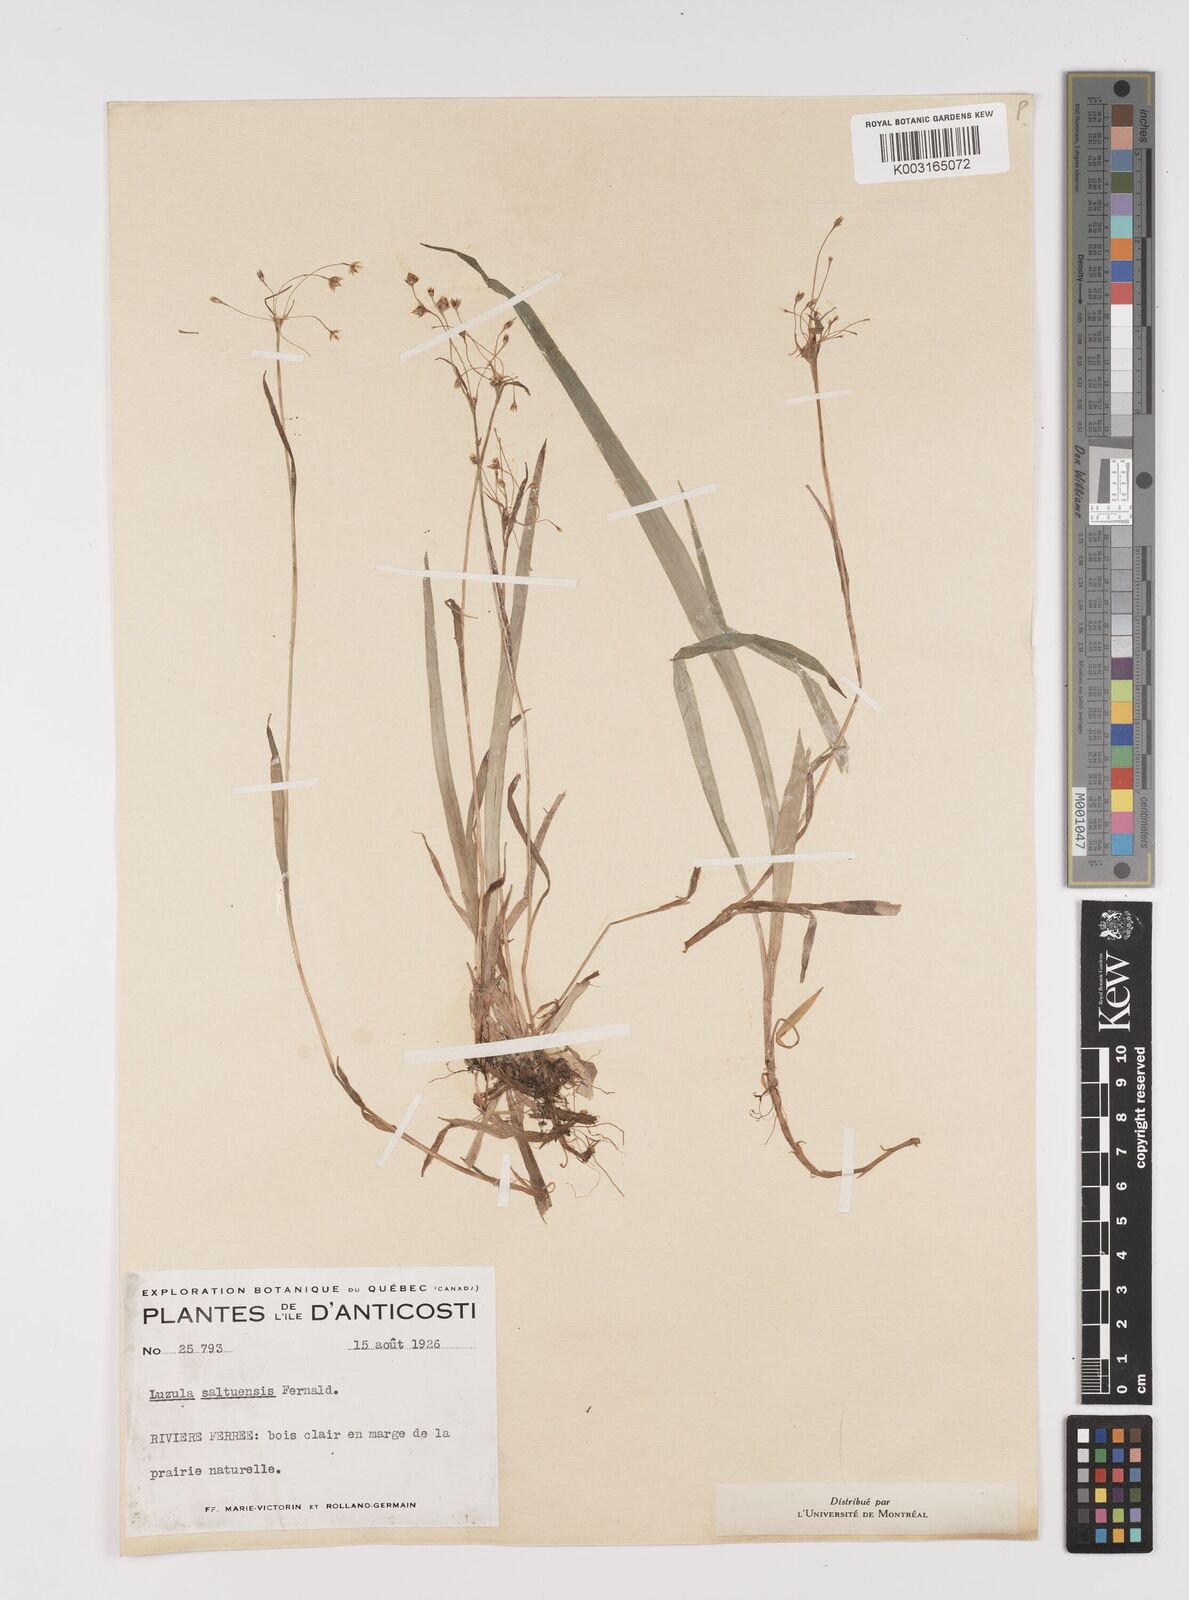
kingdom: Plantae
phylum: Tracheophyta
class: Liliopsida
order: Poales
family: Juncaceae
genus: Luzula
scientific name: Luzula acuminata
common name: Hairy woodrush
